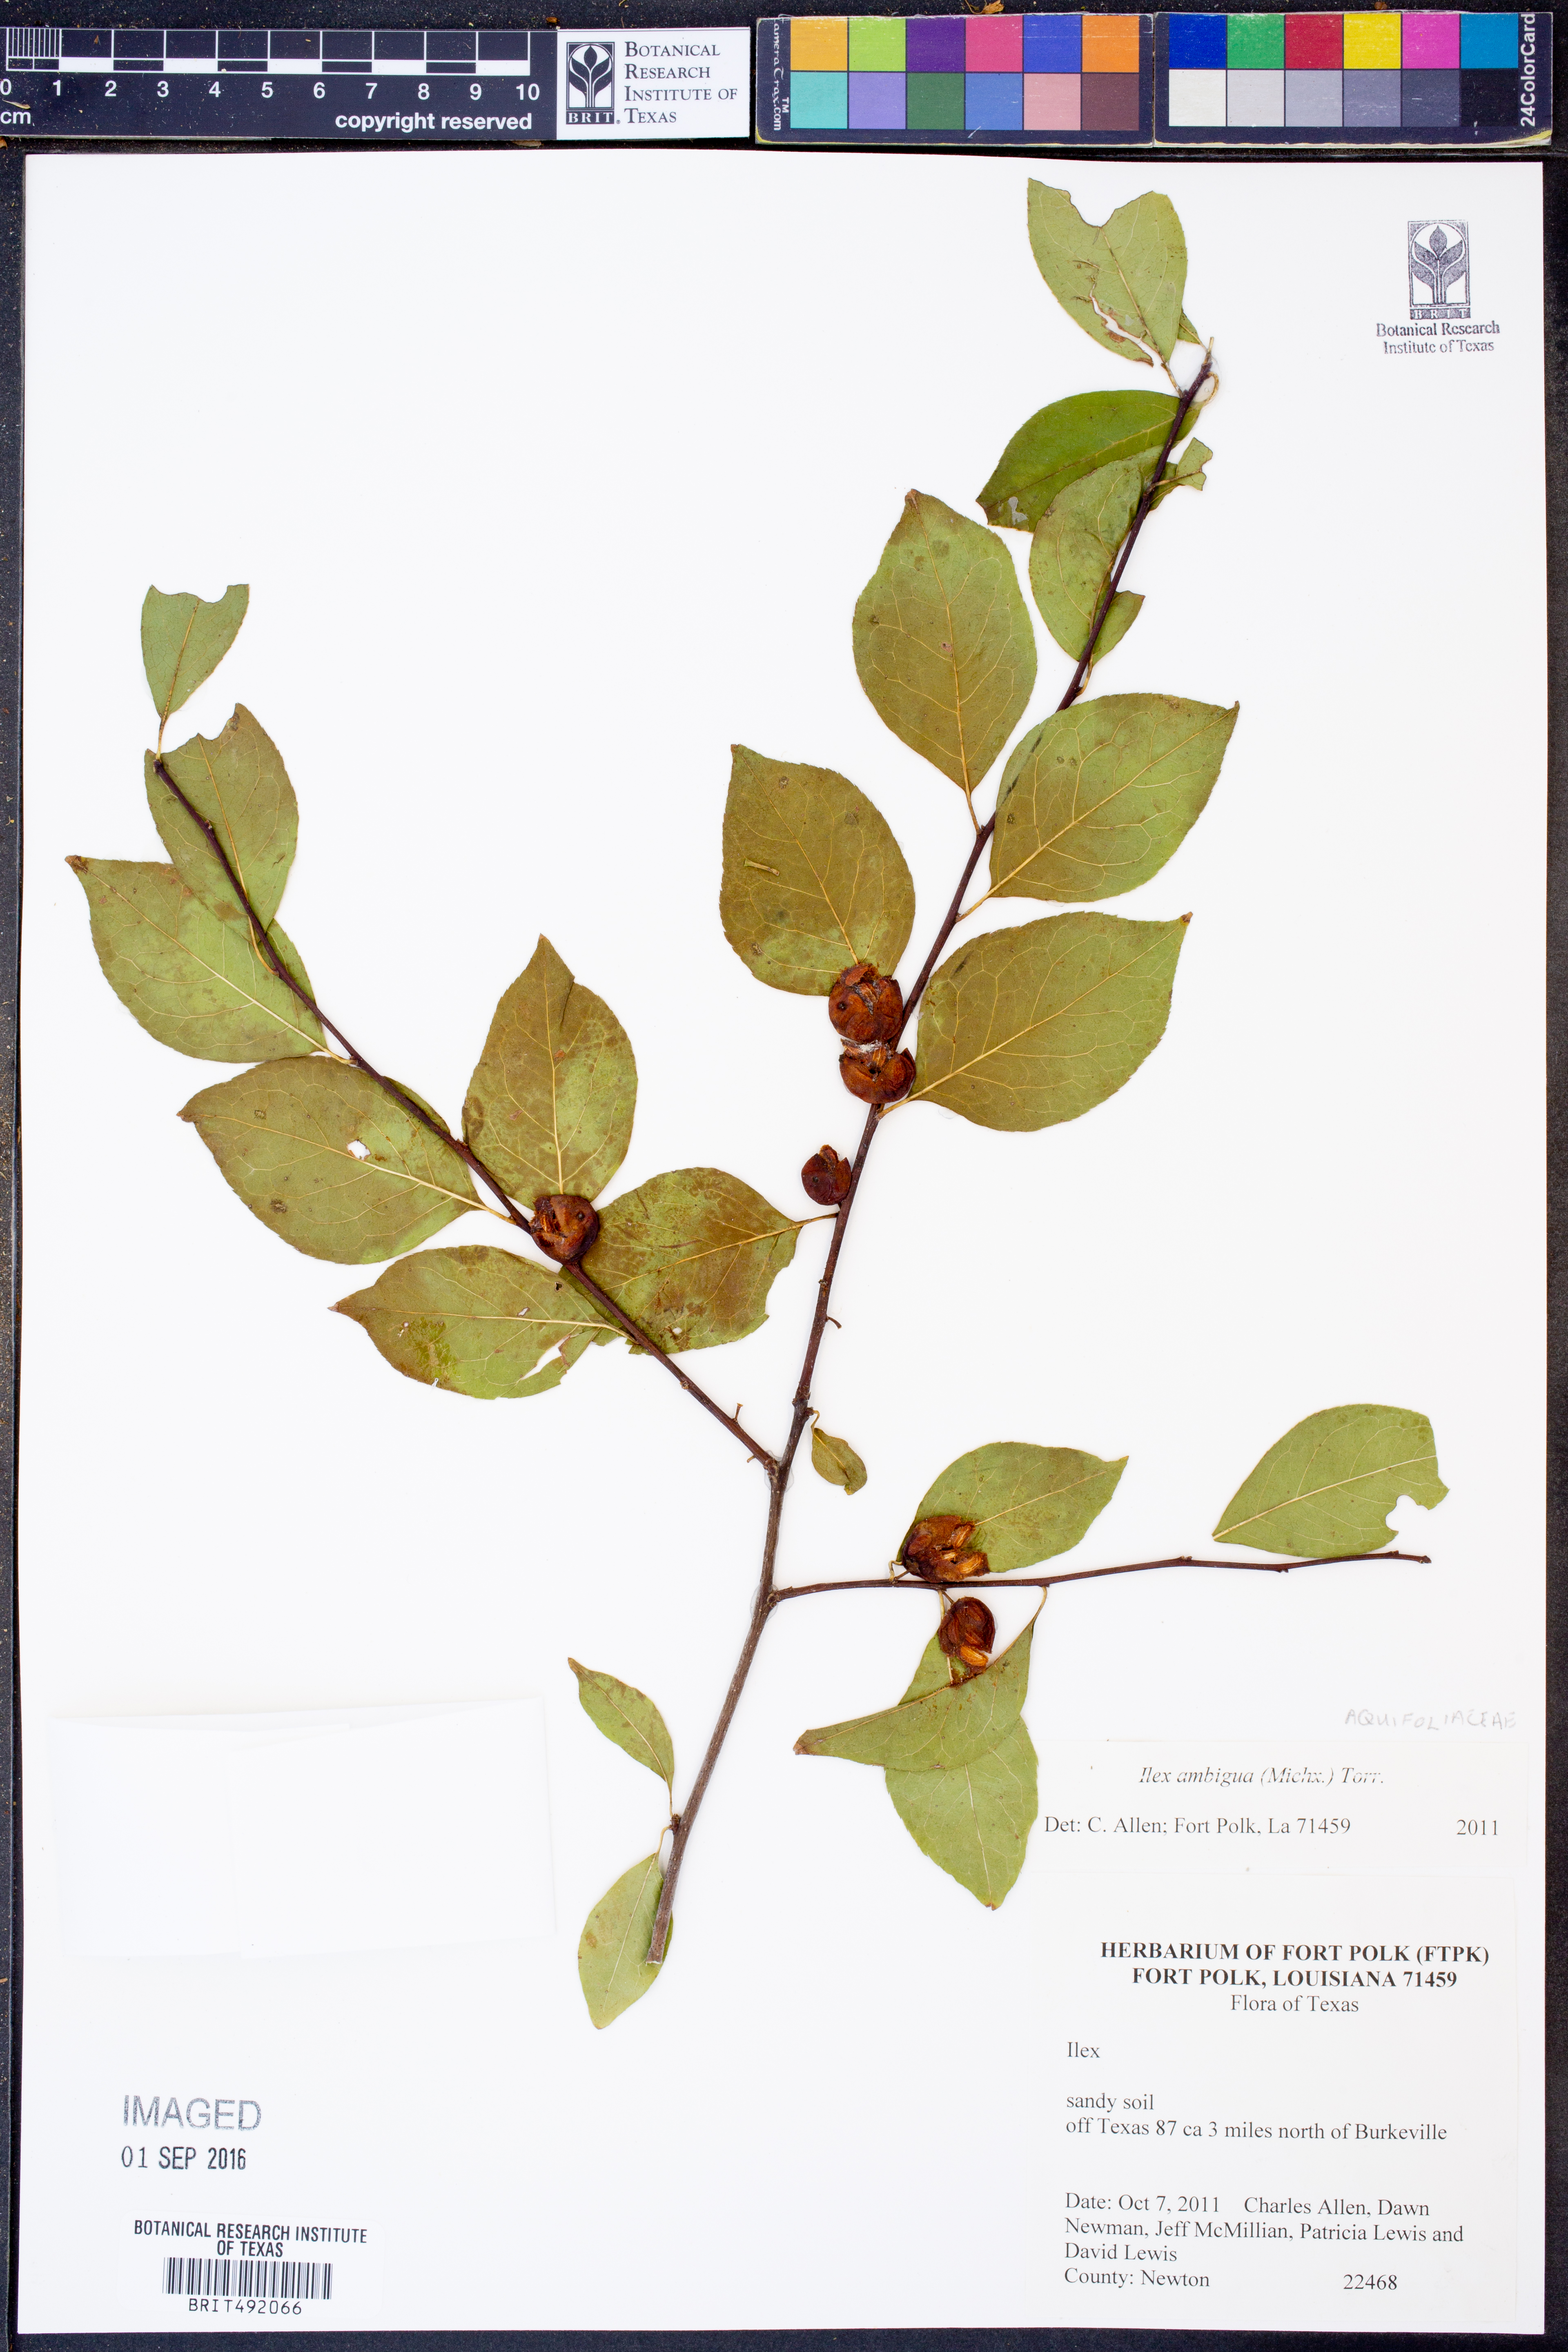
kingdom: Plantae
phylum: Tracheophyta
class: Magnoliopsida
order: Aquifoliales
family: Aquifoliaceae
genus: Ilex
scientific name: Ilex ambigua
